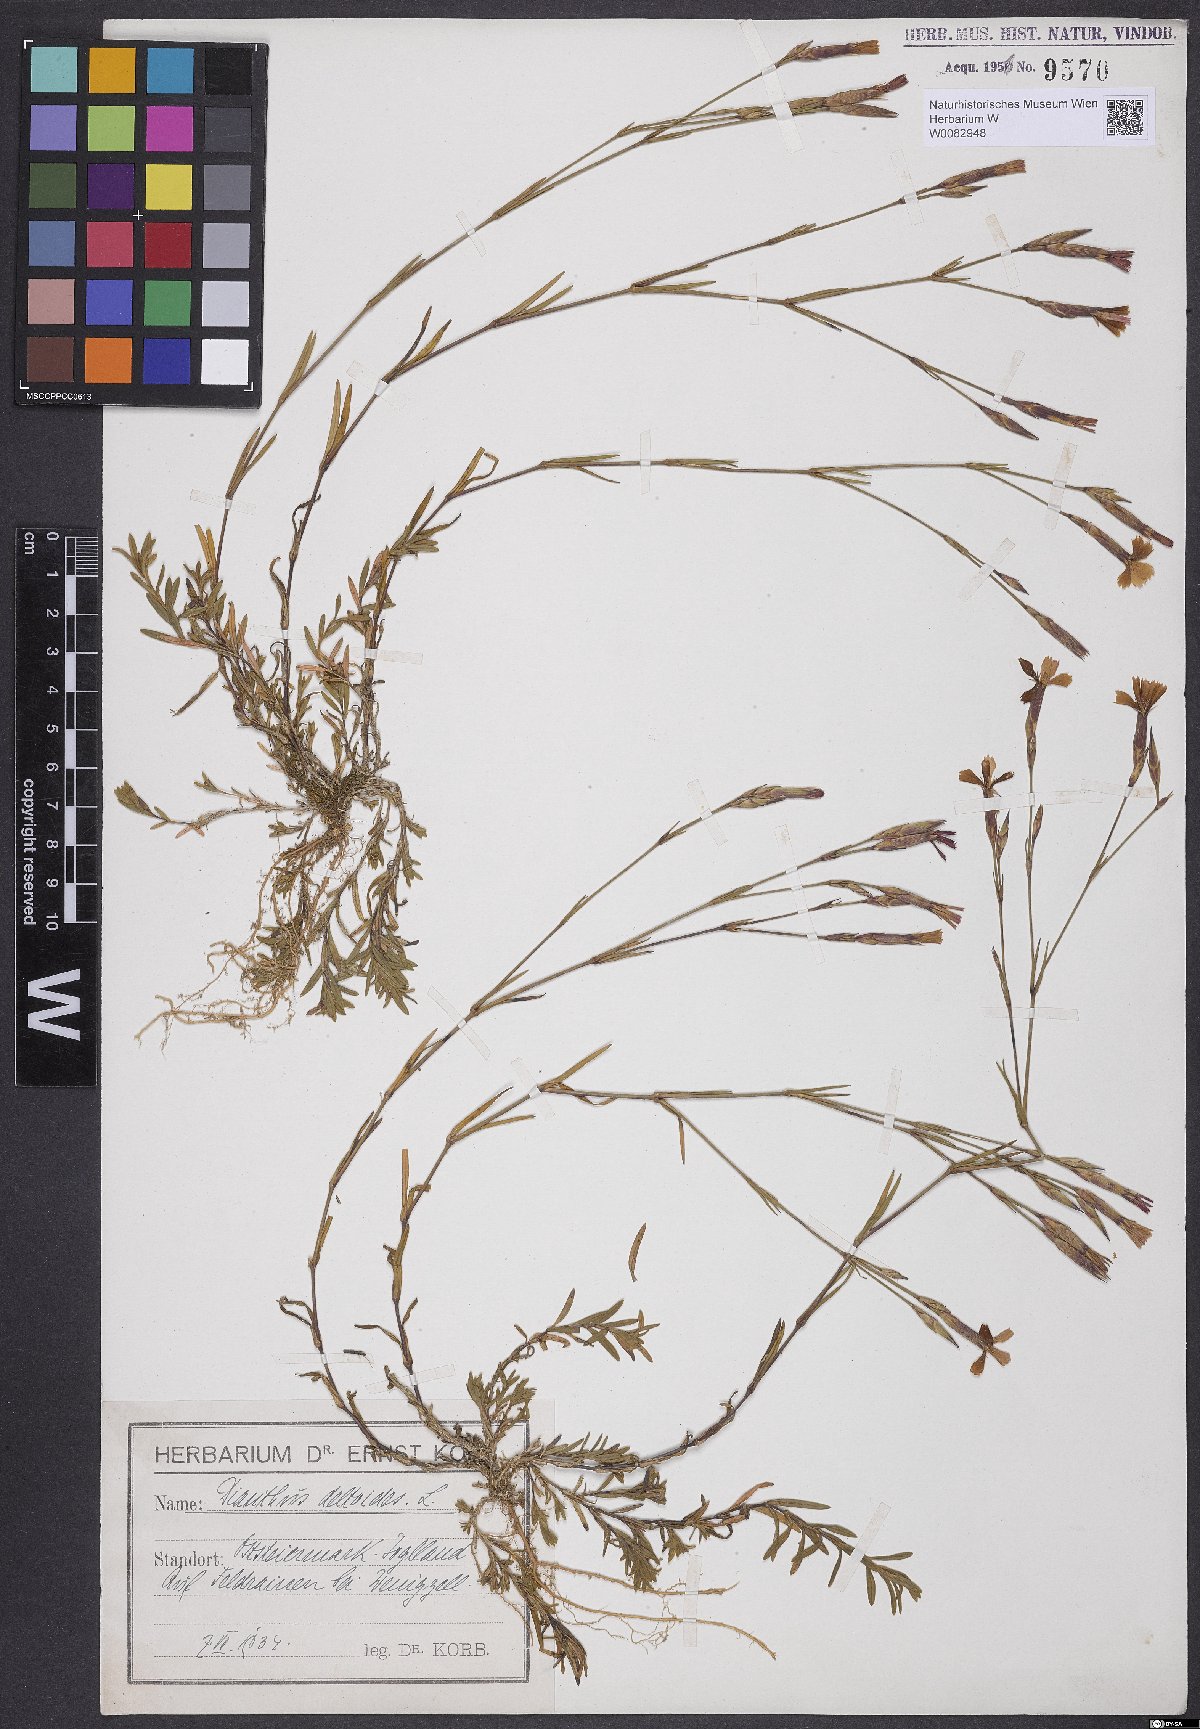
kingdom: Plantae
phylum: Tracheophyta
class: Magnoliopsida
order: Caryophyllales
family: Caryophyllaceae
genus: Dianthus
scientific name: Dianthus deltoides
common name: Maiden pink
